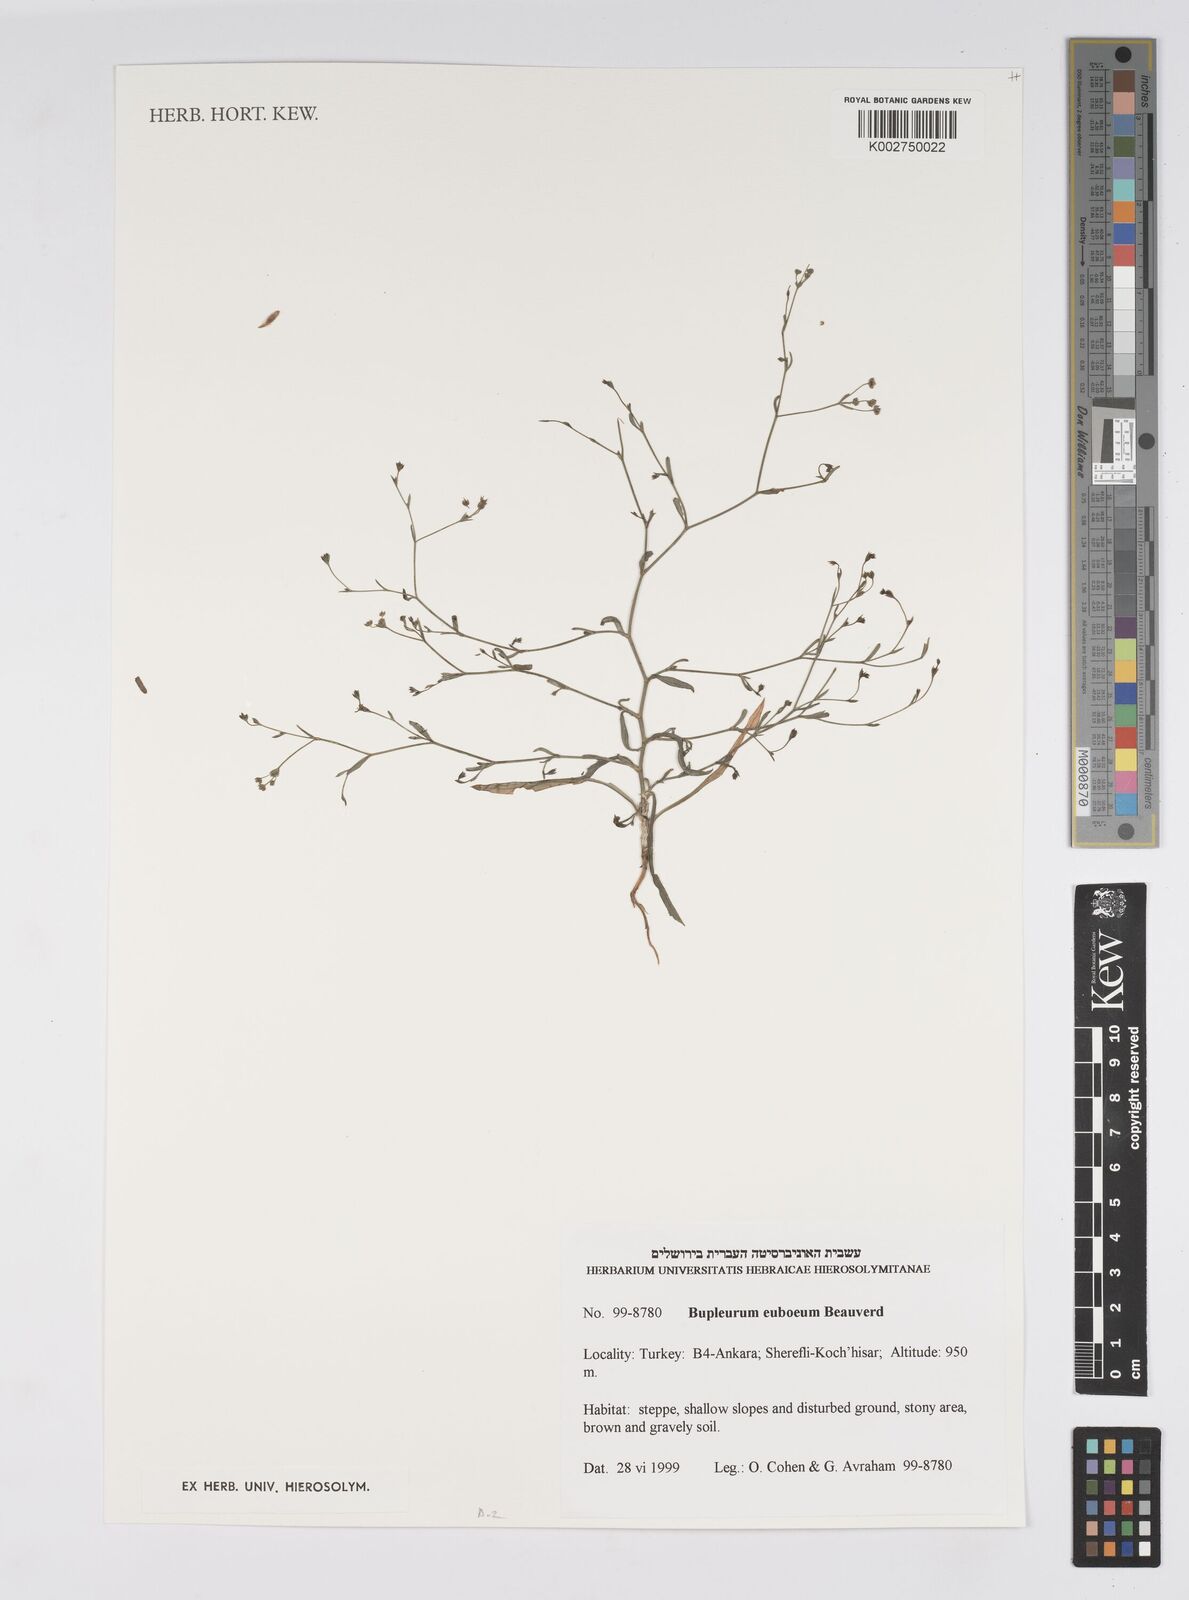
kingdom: Plantae
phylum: Tracheophyta
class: Magnoliopsida
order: Apiales
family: Apiaceae
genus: Bupleurum
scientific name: Bupleurum euboeum
